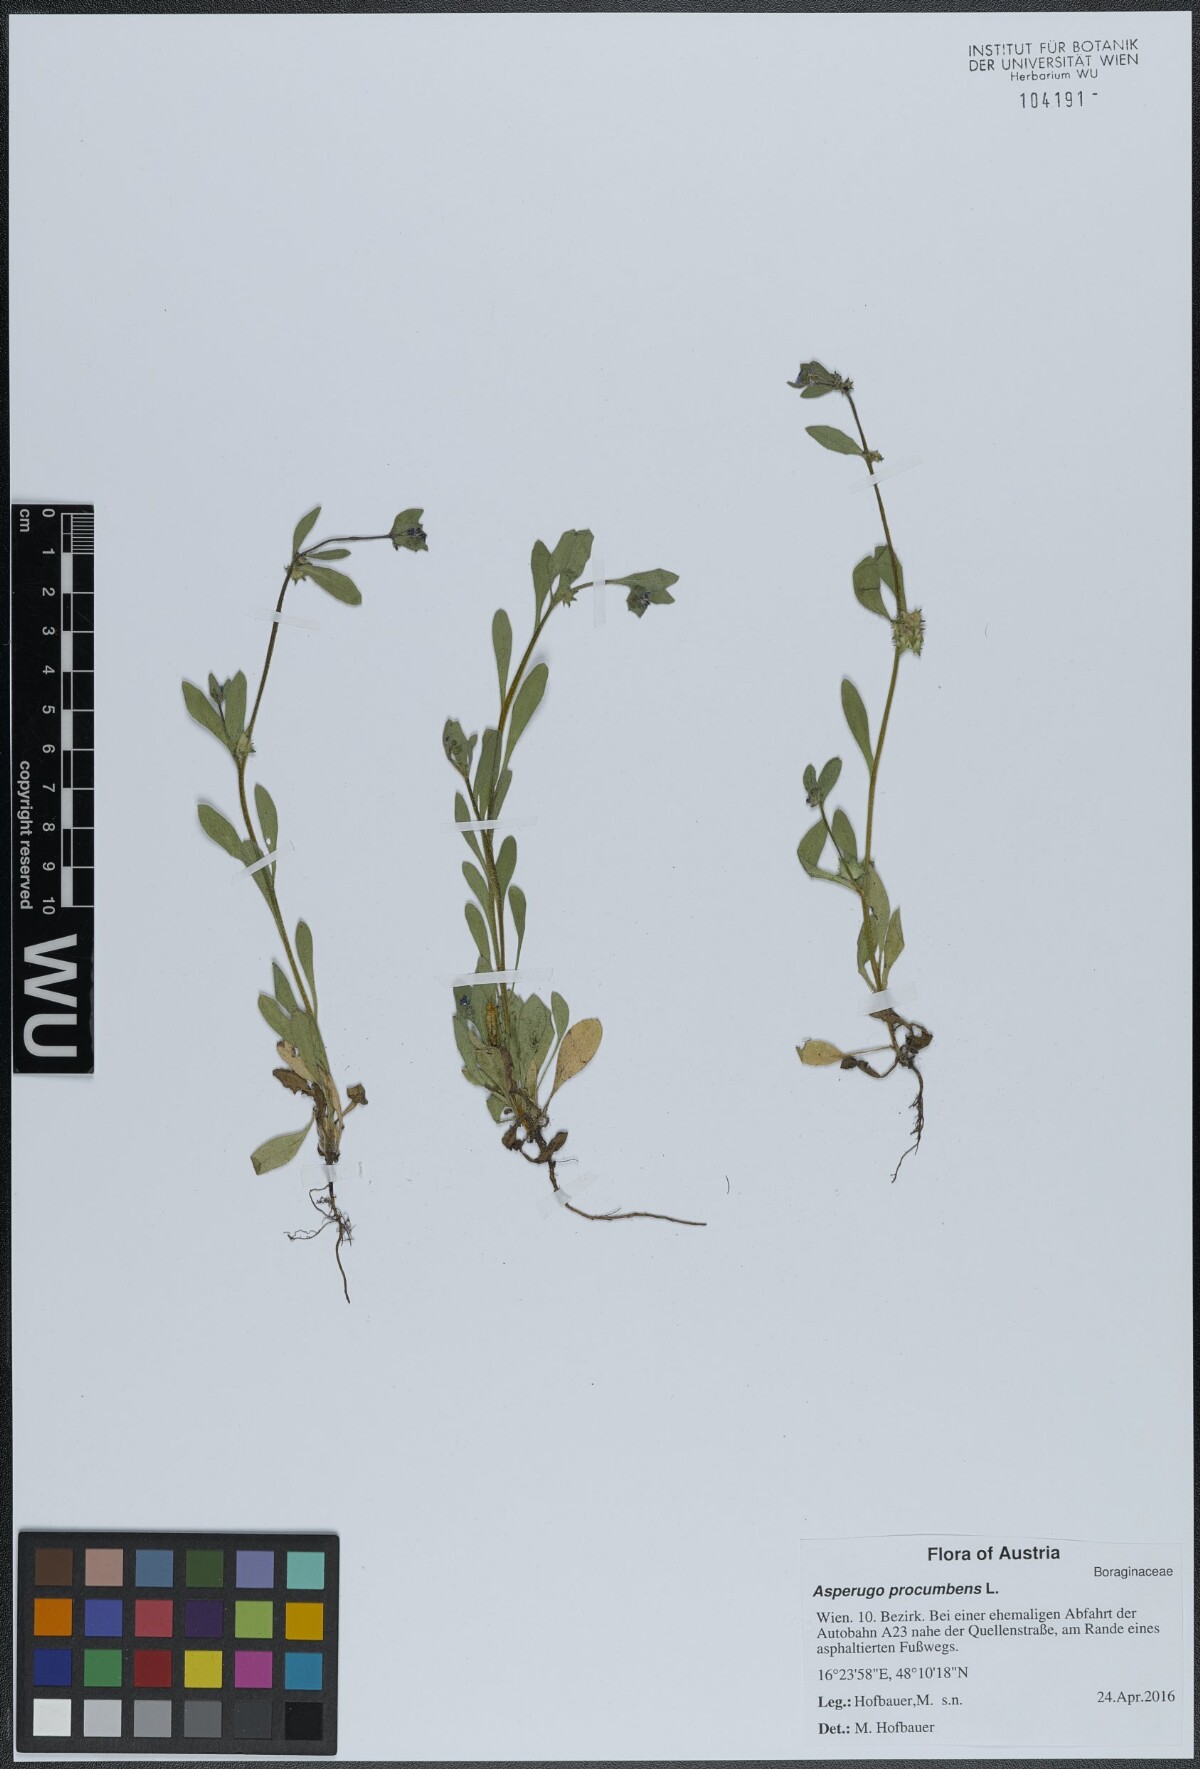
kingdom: Plantae
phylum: Tracheophyta
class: Magnoliopsida
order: Boraginales
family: Boraginaceae
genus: Asperugo
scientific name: Asperugo procumbens
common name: Madwort
